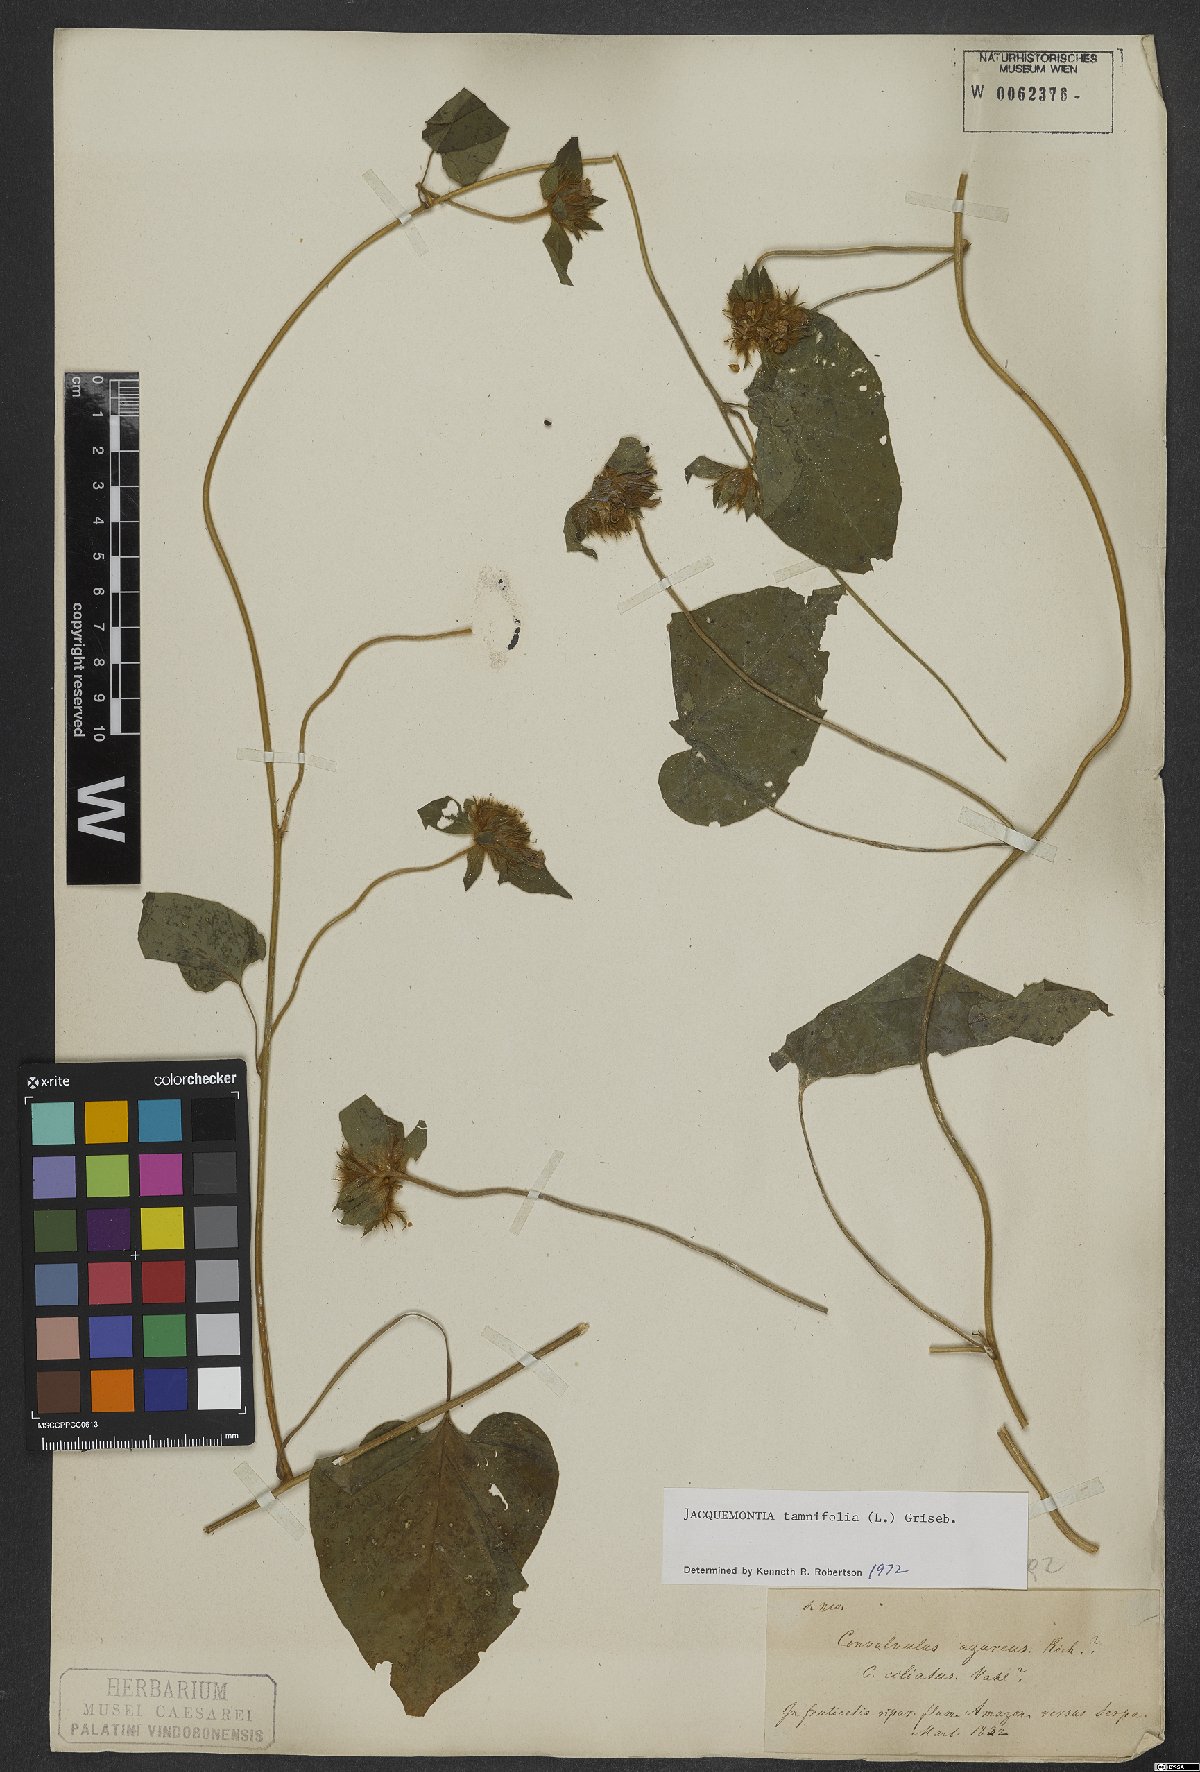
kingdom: Plantae
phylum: Tracheophyta
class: Magnoliopsida
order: Solanales
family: Convolvulaceae
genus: Jacquemontia
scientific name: Jacquemontia tamnifolia
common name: Hairy clustervine
